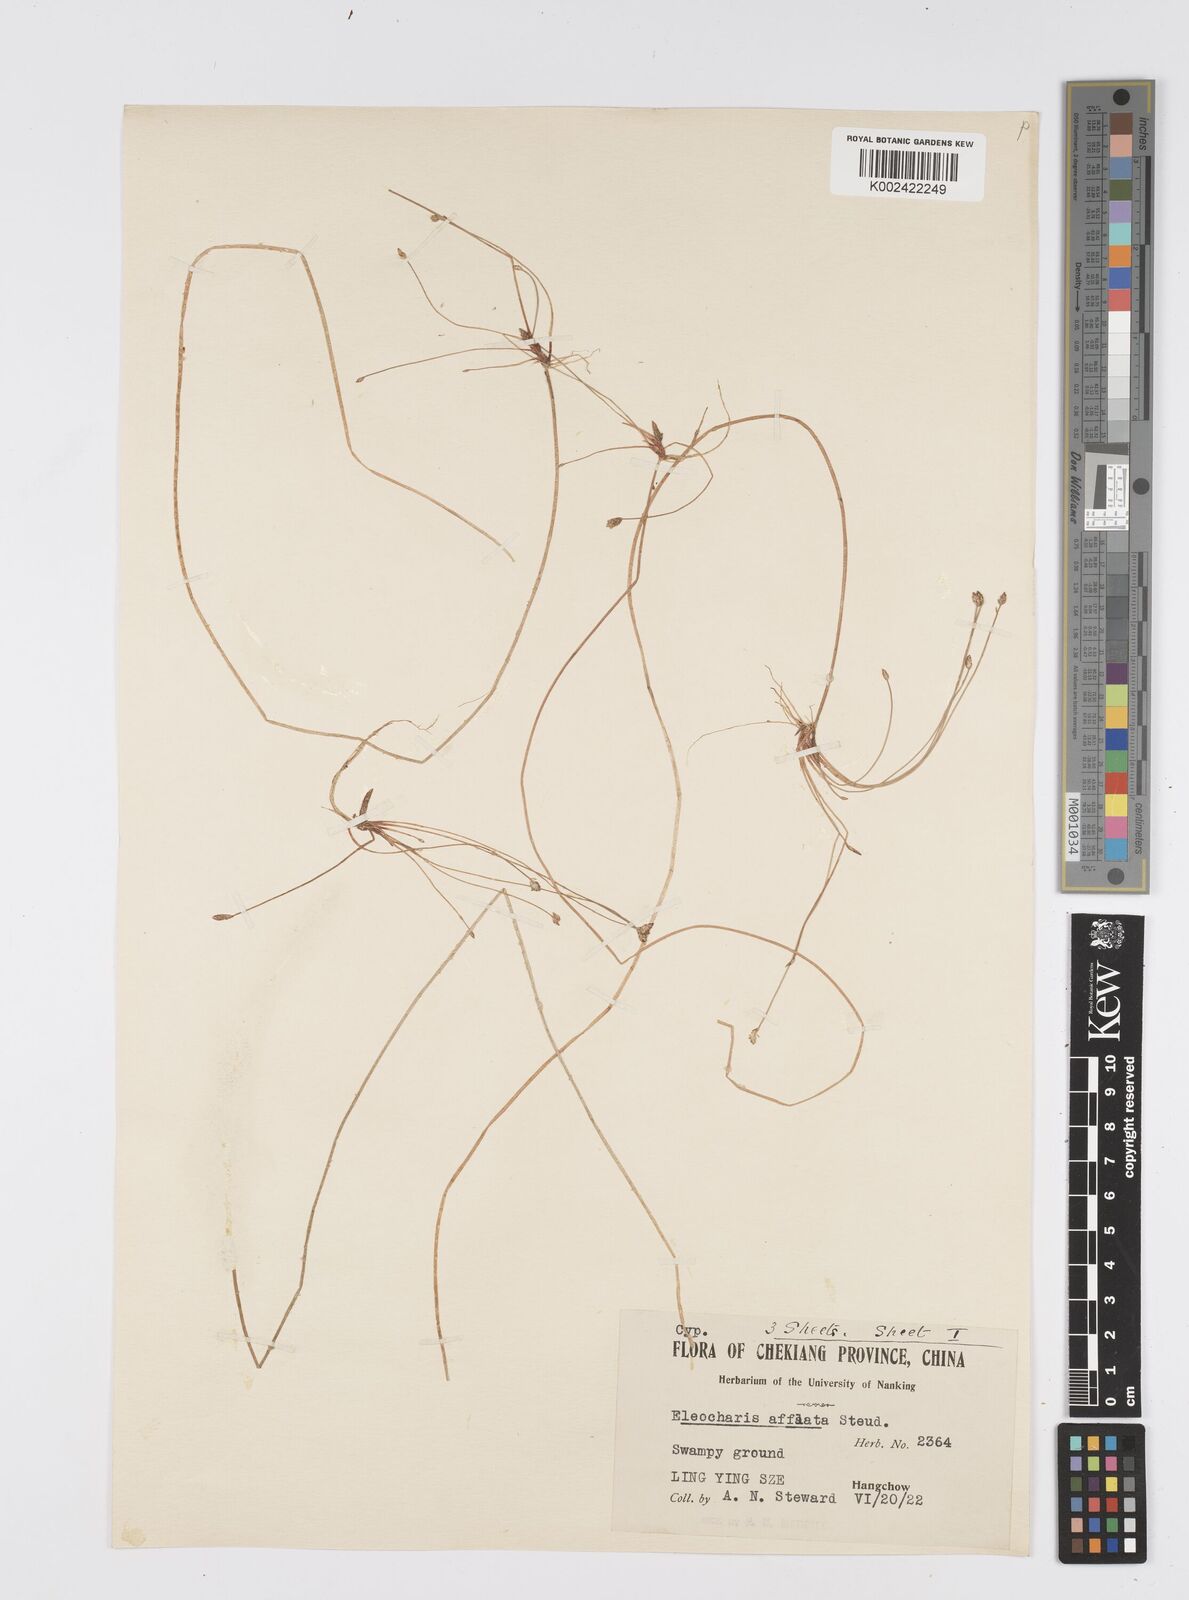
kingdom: Plantae
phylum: Tracheophyta
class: Liliopsida
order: Poales
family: Cyperaceae
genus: Eleocharis
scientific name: Eleocharis pellucida
